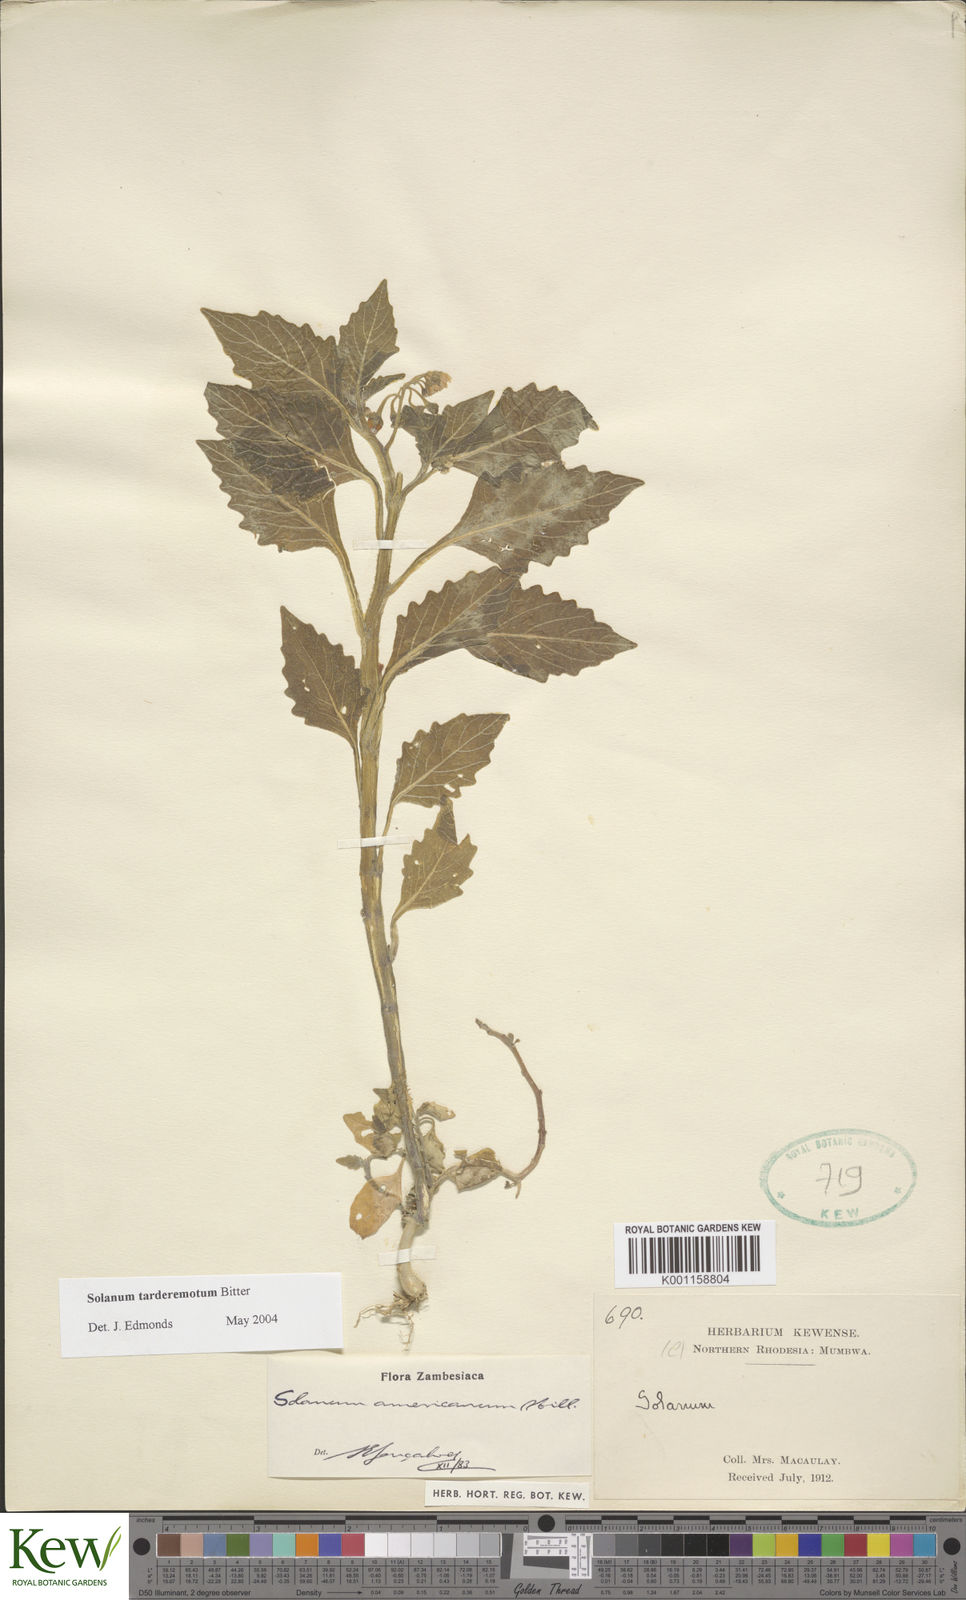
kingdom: Plantae
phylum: Tracheophyta
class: Magnoliopsida
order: Solanales
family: Solanaceae
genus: Solanum
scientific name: Solanum tarderemotum
